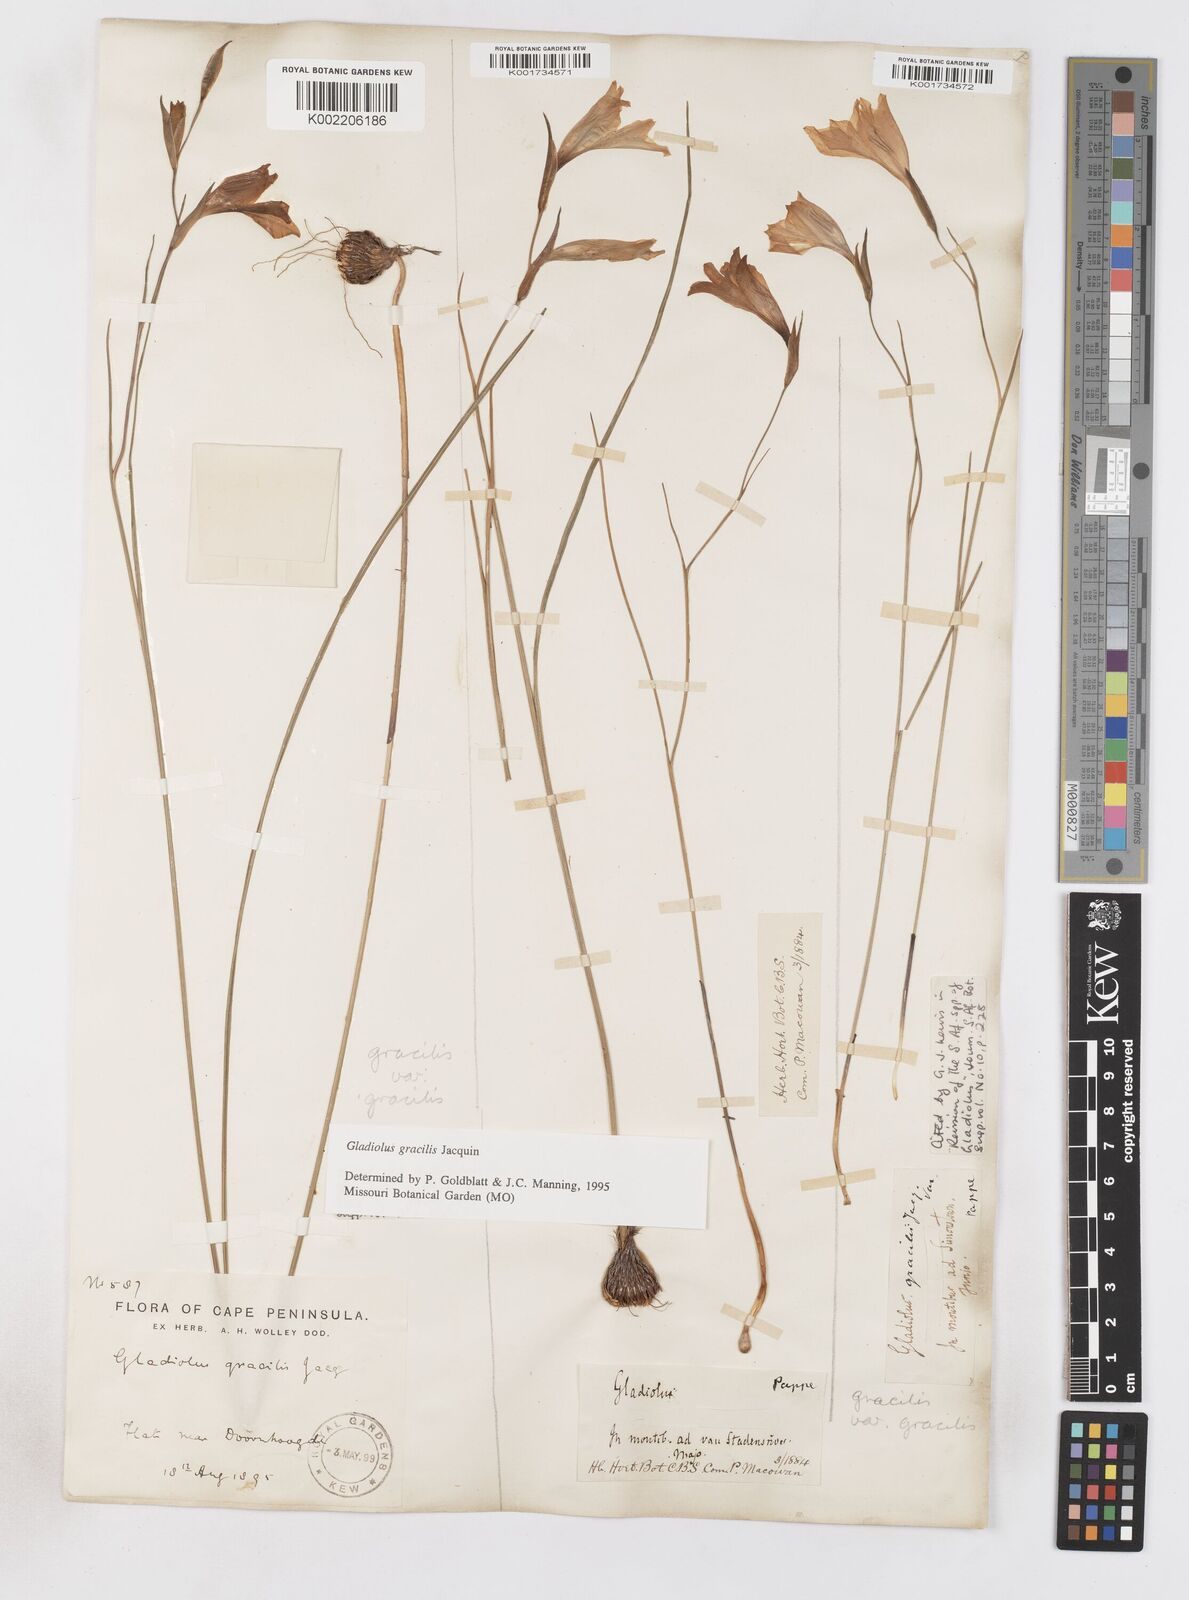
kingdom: Plantae
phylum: Tracheophyta
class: Liliopsida
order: Asparagales
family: Iridaceae
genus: Gladiolus
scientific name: Gladiolus gracilis
